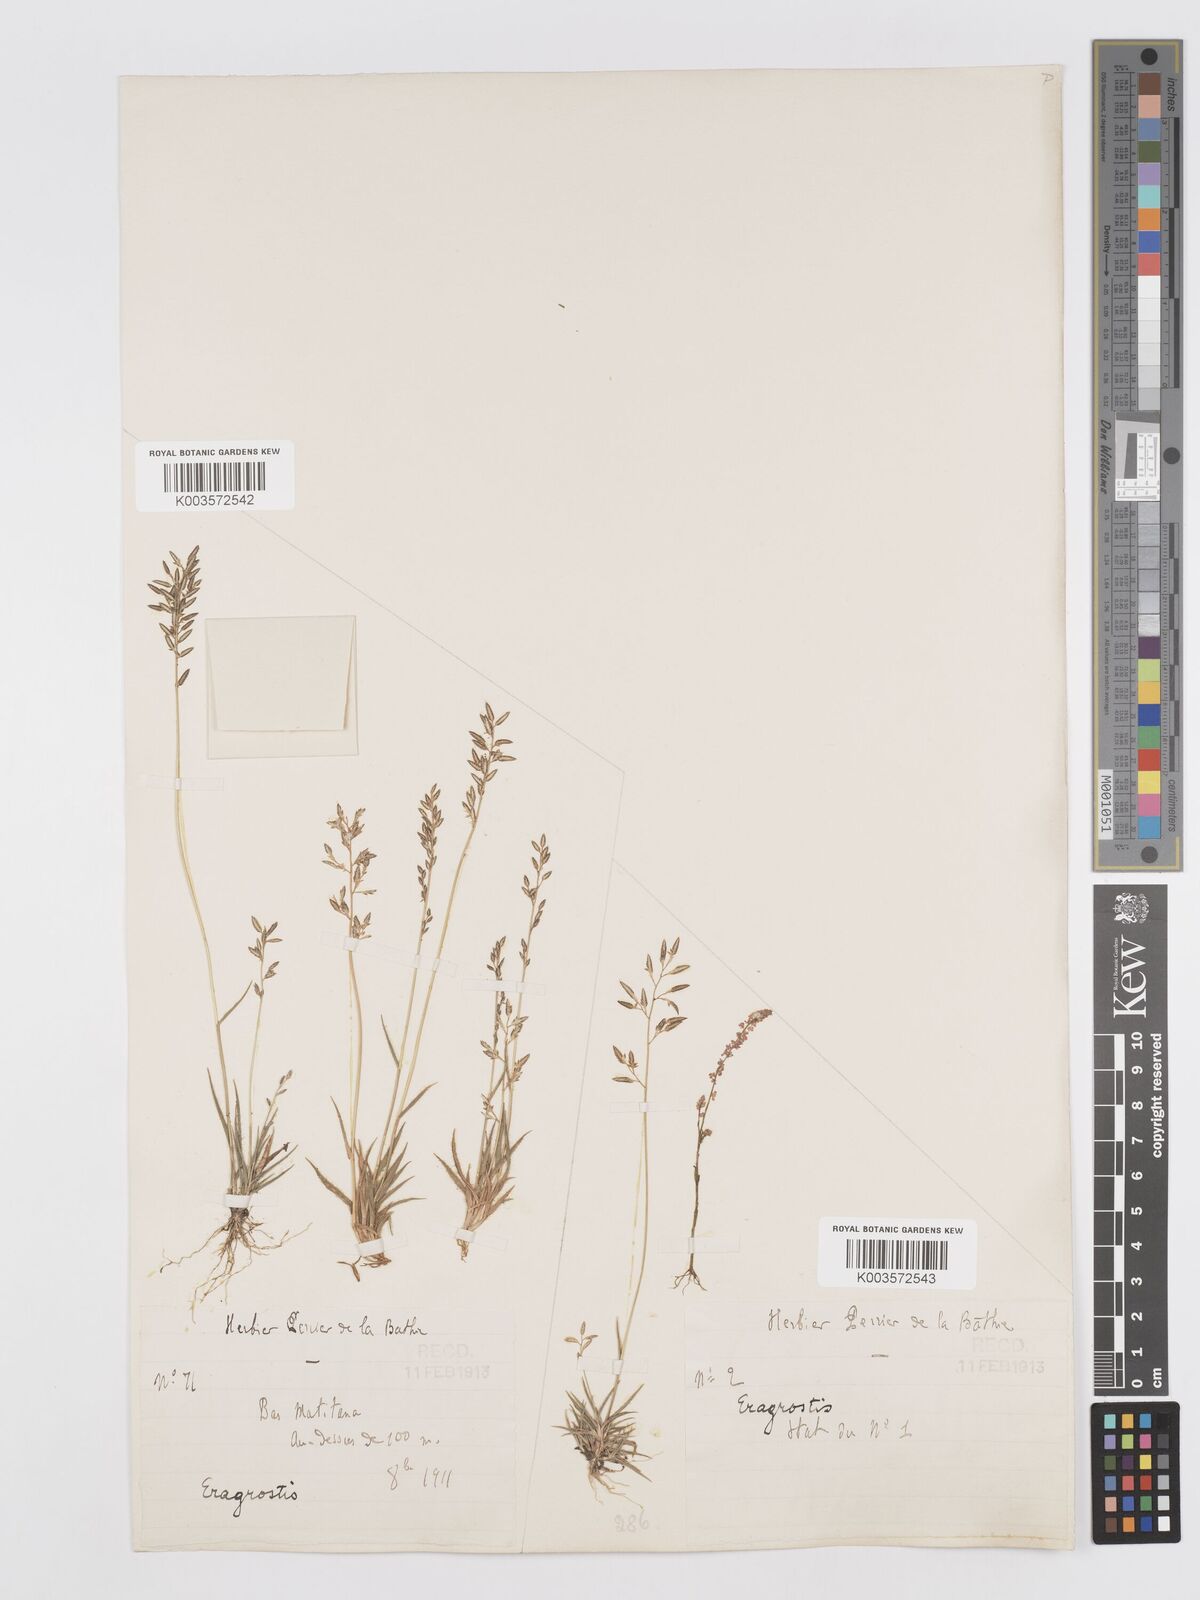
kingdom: Plantae
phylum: Tracheophyta
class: Liliopsida
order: Poales
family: Poaceae
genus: Eragrostis
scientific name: Eragrostis lateritica
